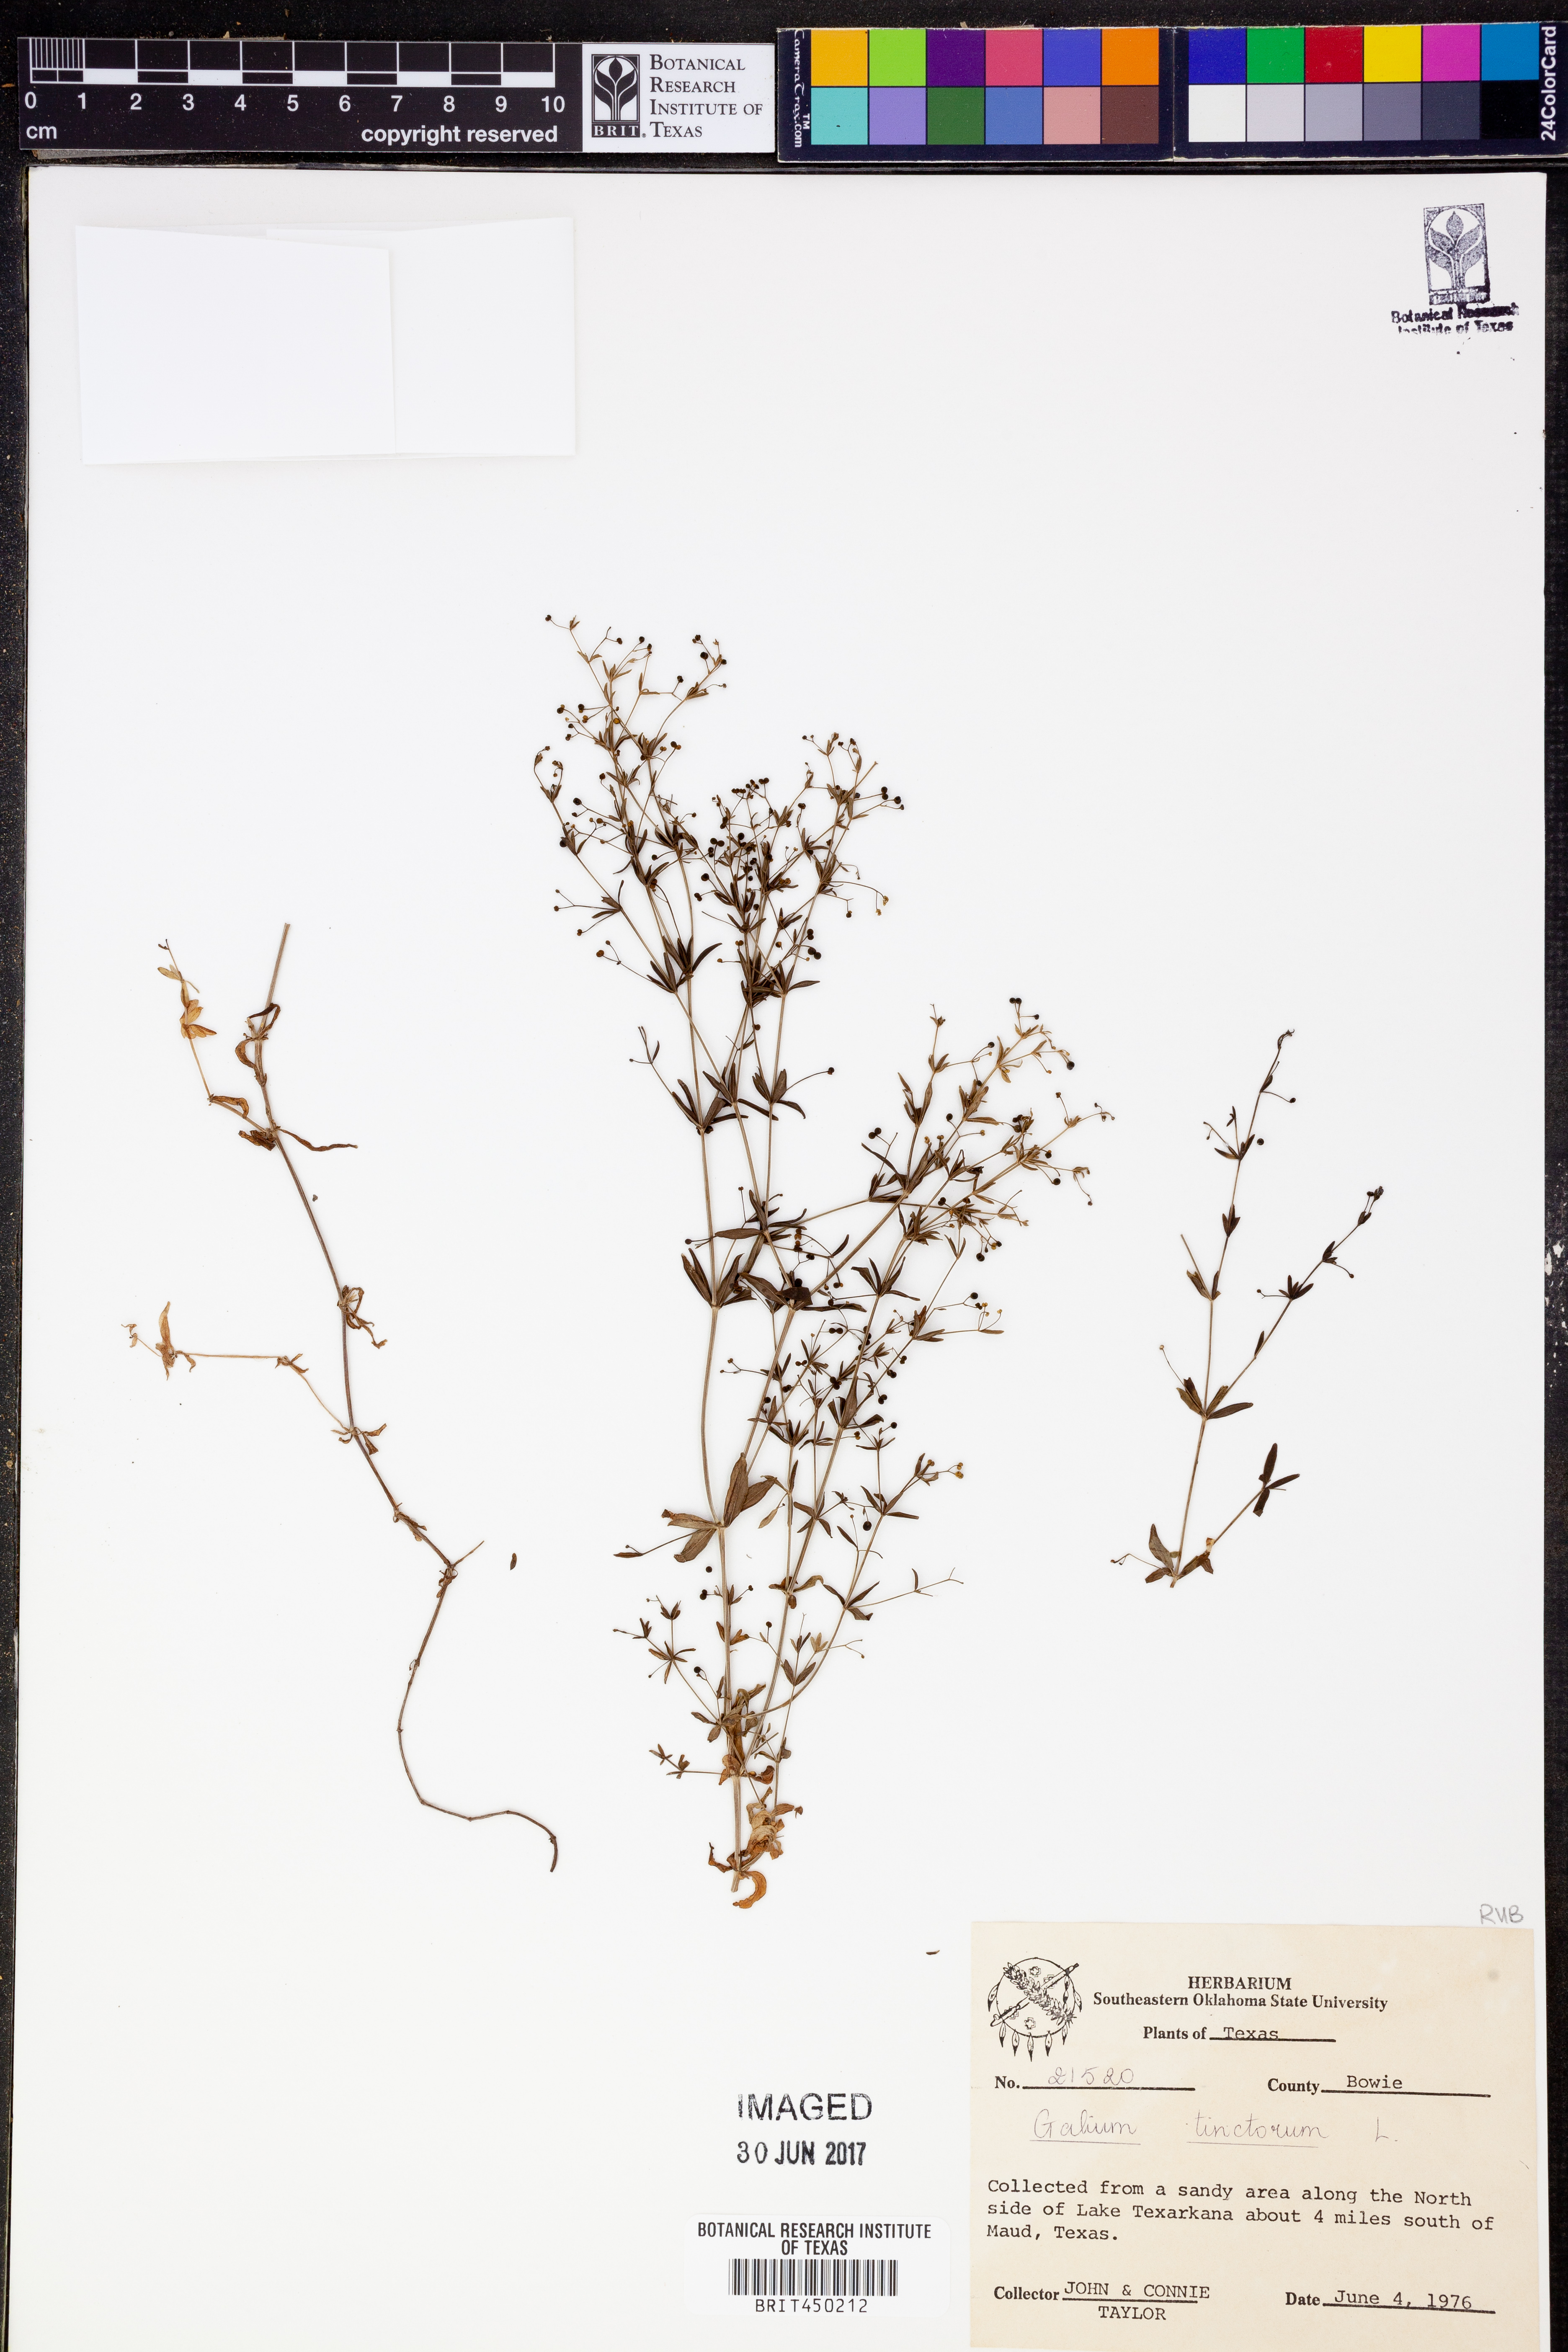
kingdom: Plantae
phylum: Tracheophyta
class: Magnoliopsida
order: Gentianales
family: Rubiaceae
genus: Asperula
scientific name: Asperula tinctoria
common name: Dyer's woodruff
